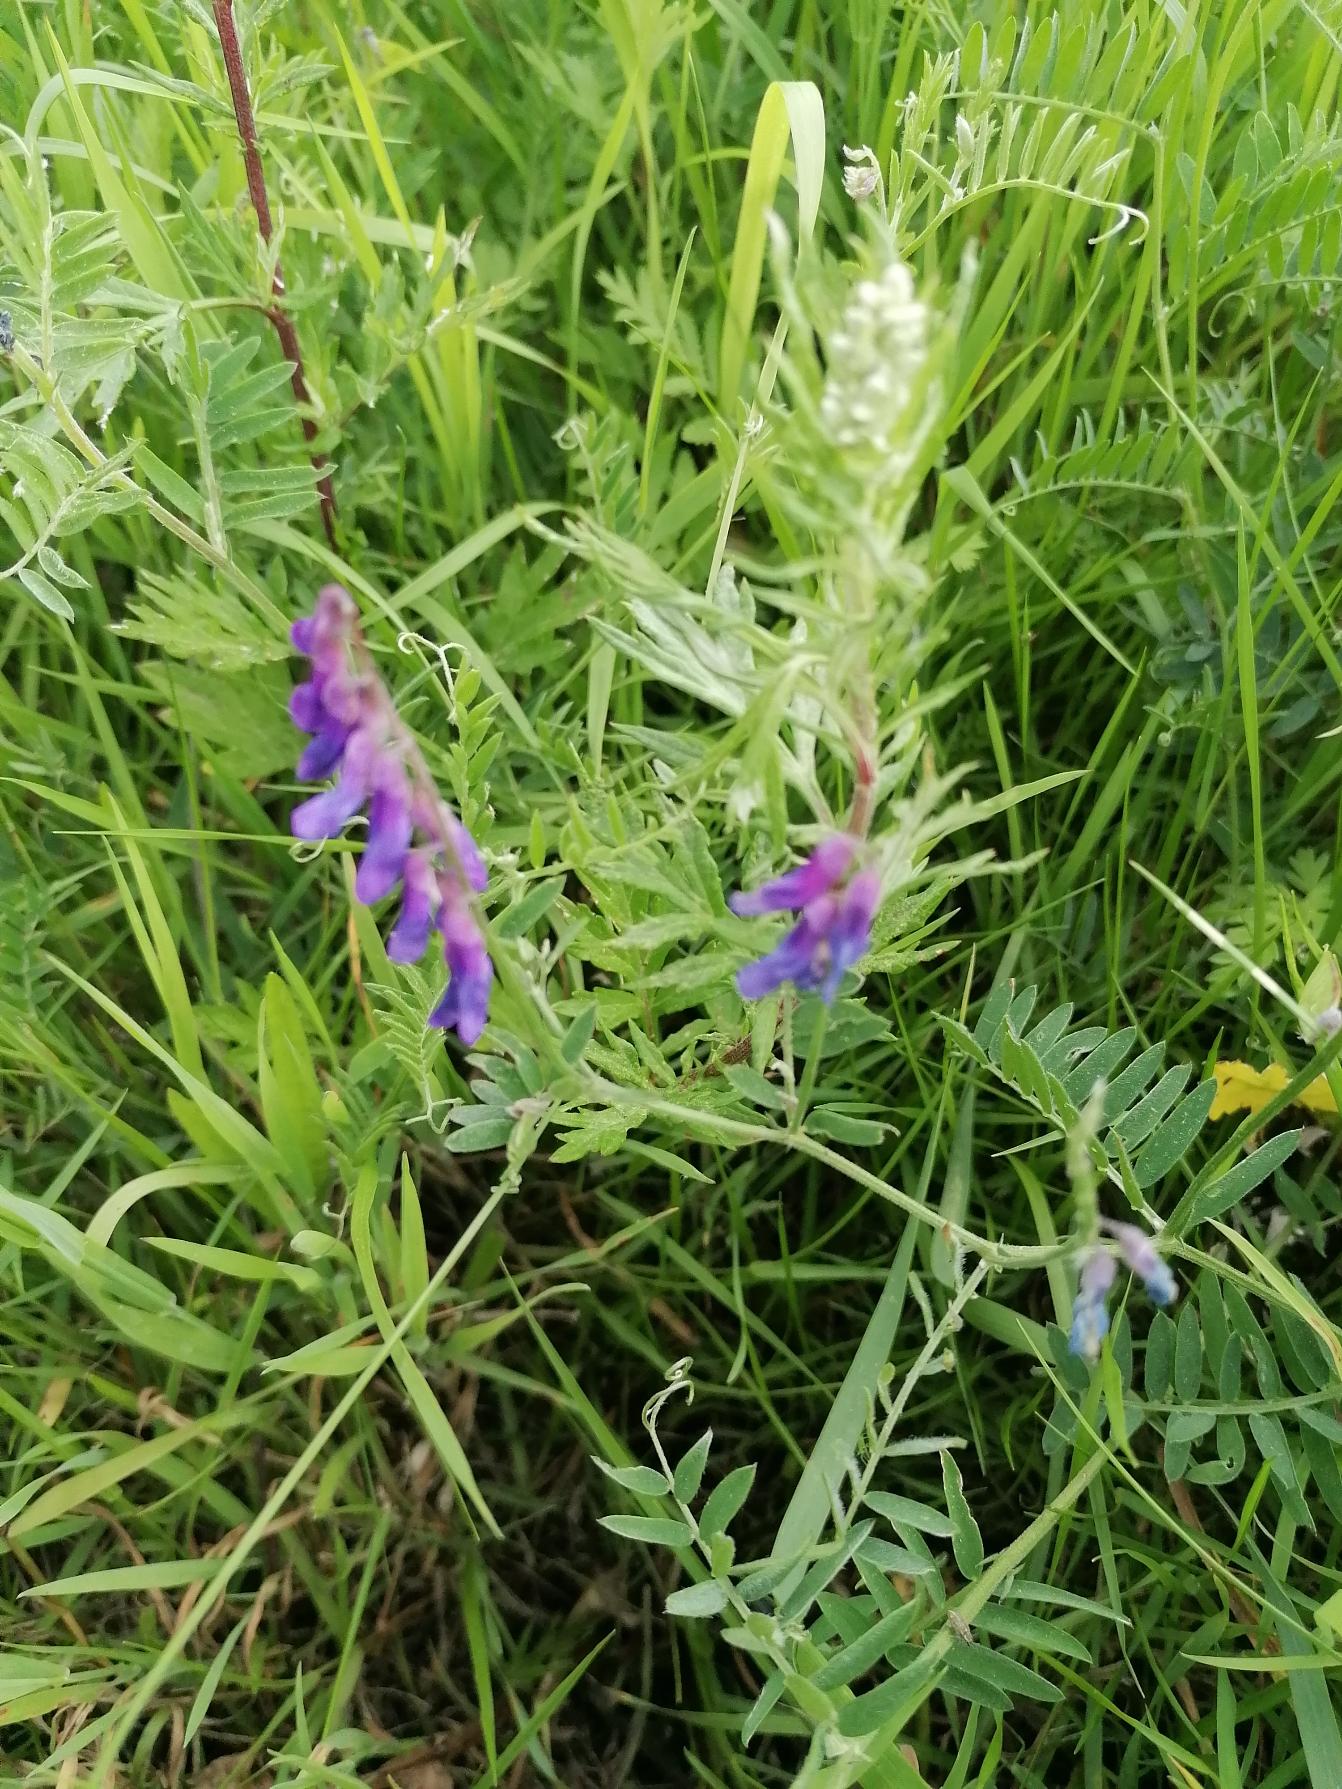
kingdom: Plantae
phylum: Tracheophyta
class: Magnoliopsida
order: Fabales
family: Fabaceae
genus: Vicia
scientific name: Vicia cracca
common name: Muse-vikke
